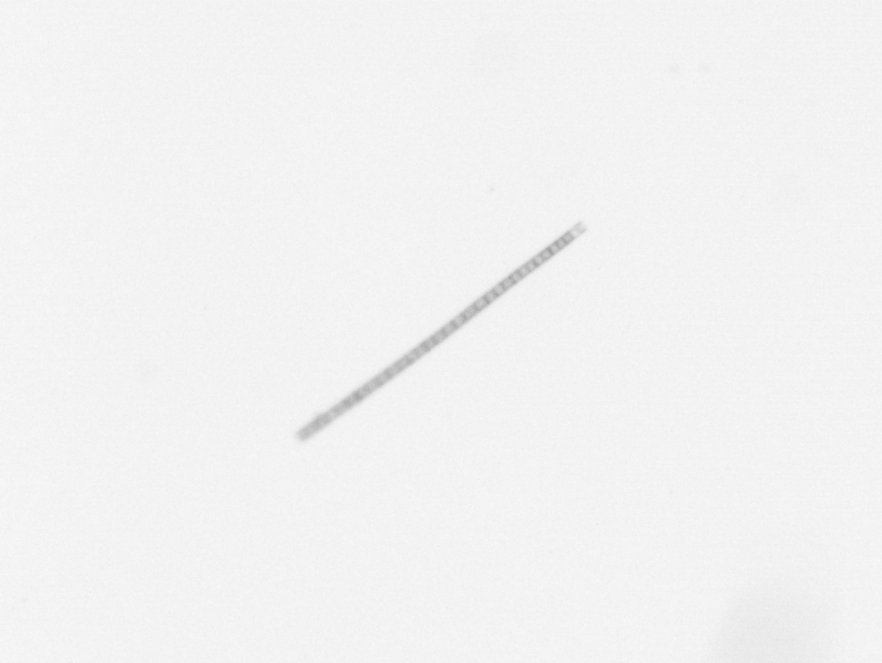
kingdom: Chromista
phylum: Ochrophyta
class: Bacillariophyceae
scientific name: Bacillariophyceae
